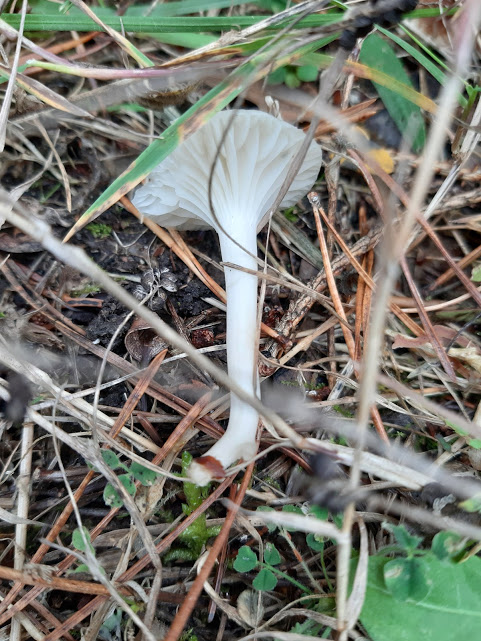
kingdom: Fungi
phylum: Basidiomycota
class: Agaricomycetes
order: Agaricales
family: Hygrophoraceae
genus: Cuphophyllus
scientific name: Cuphophyllus
